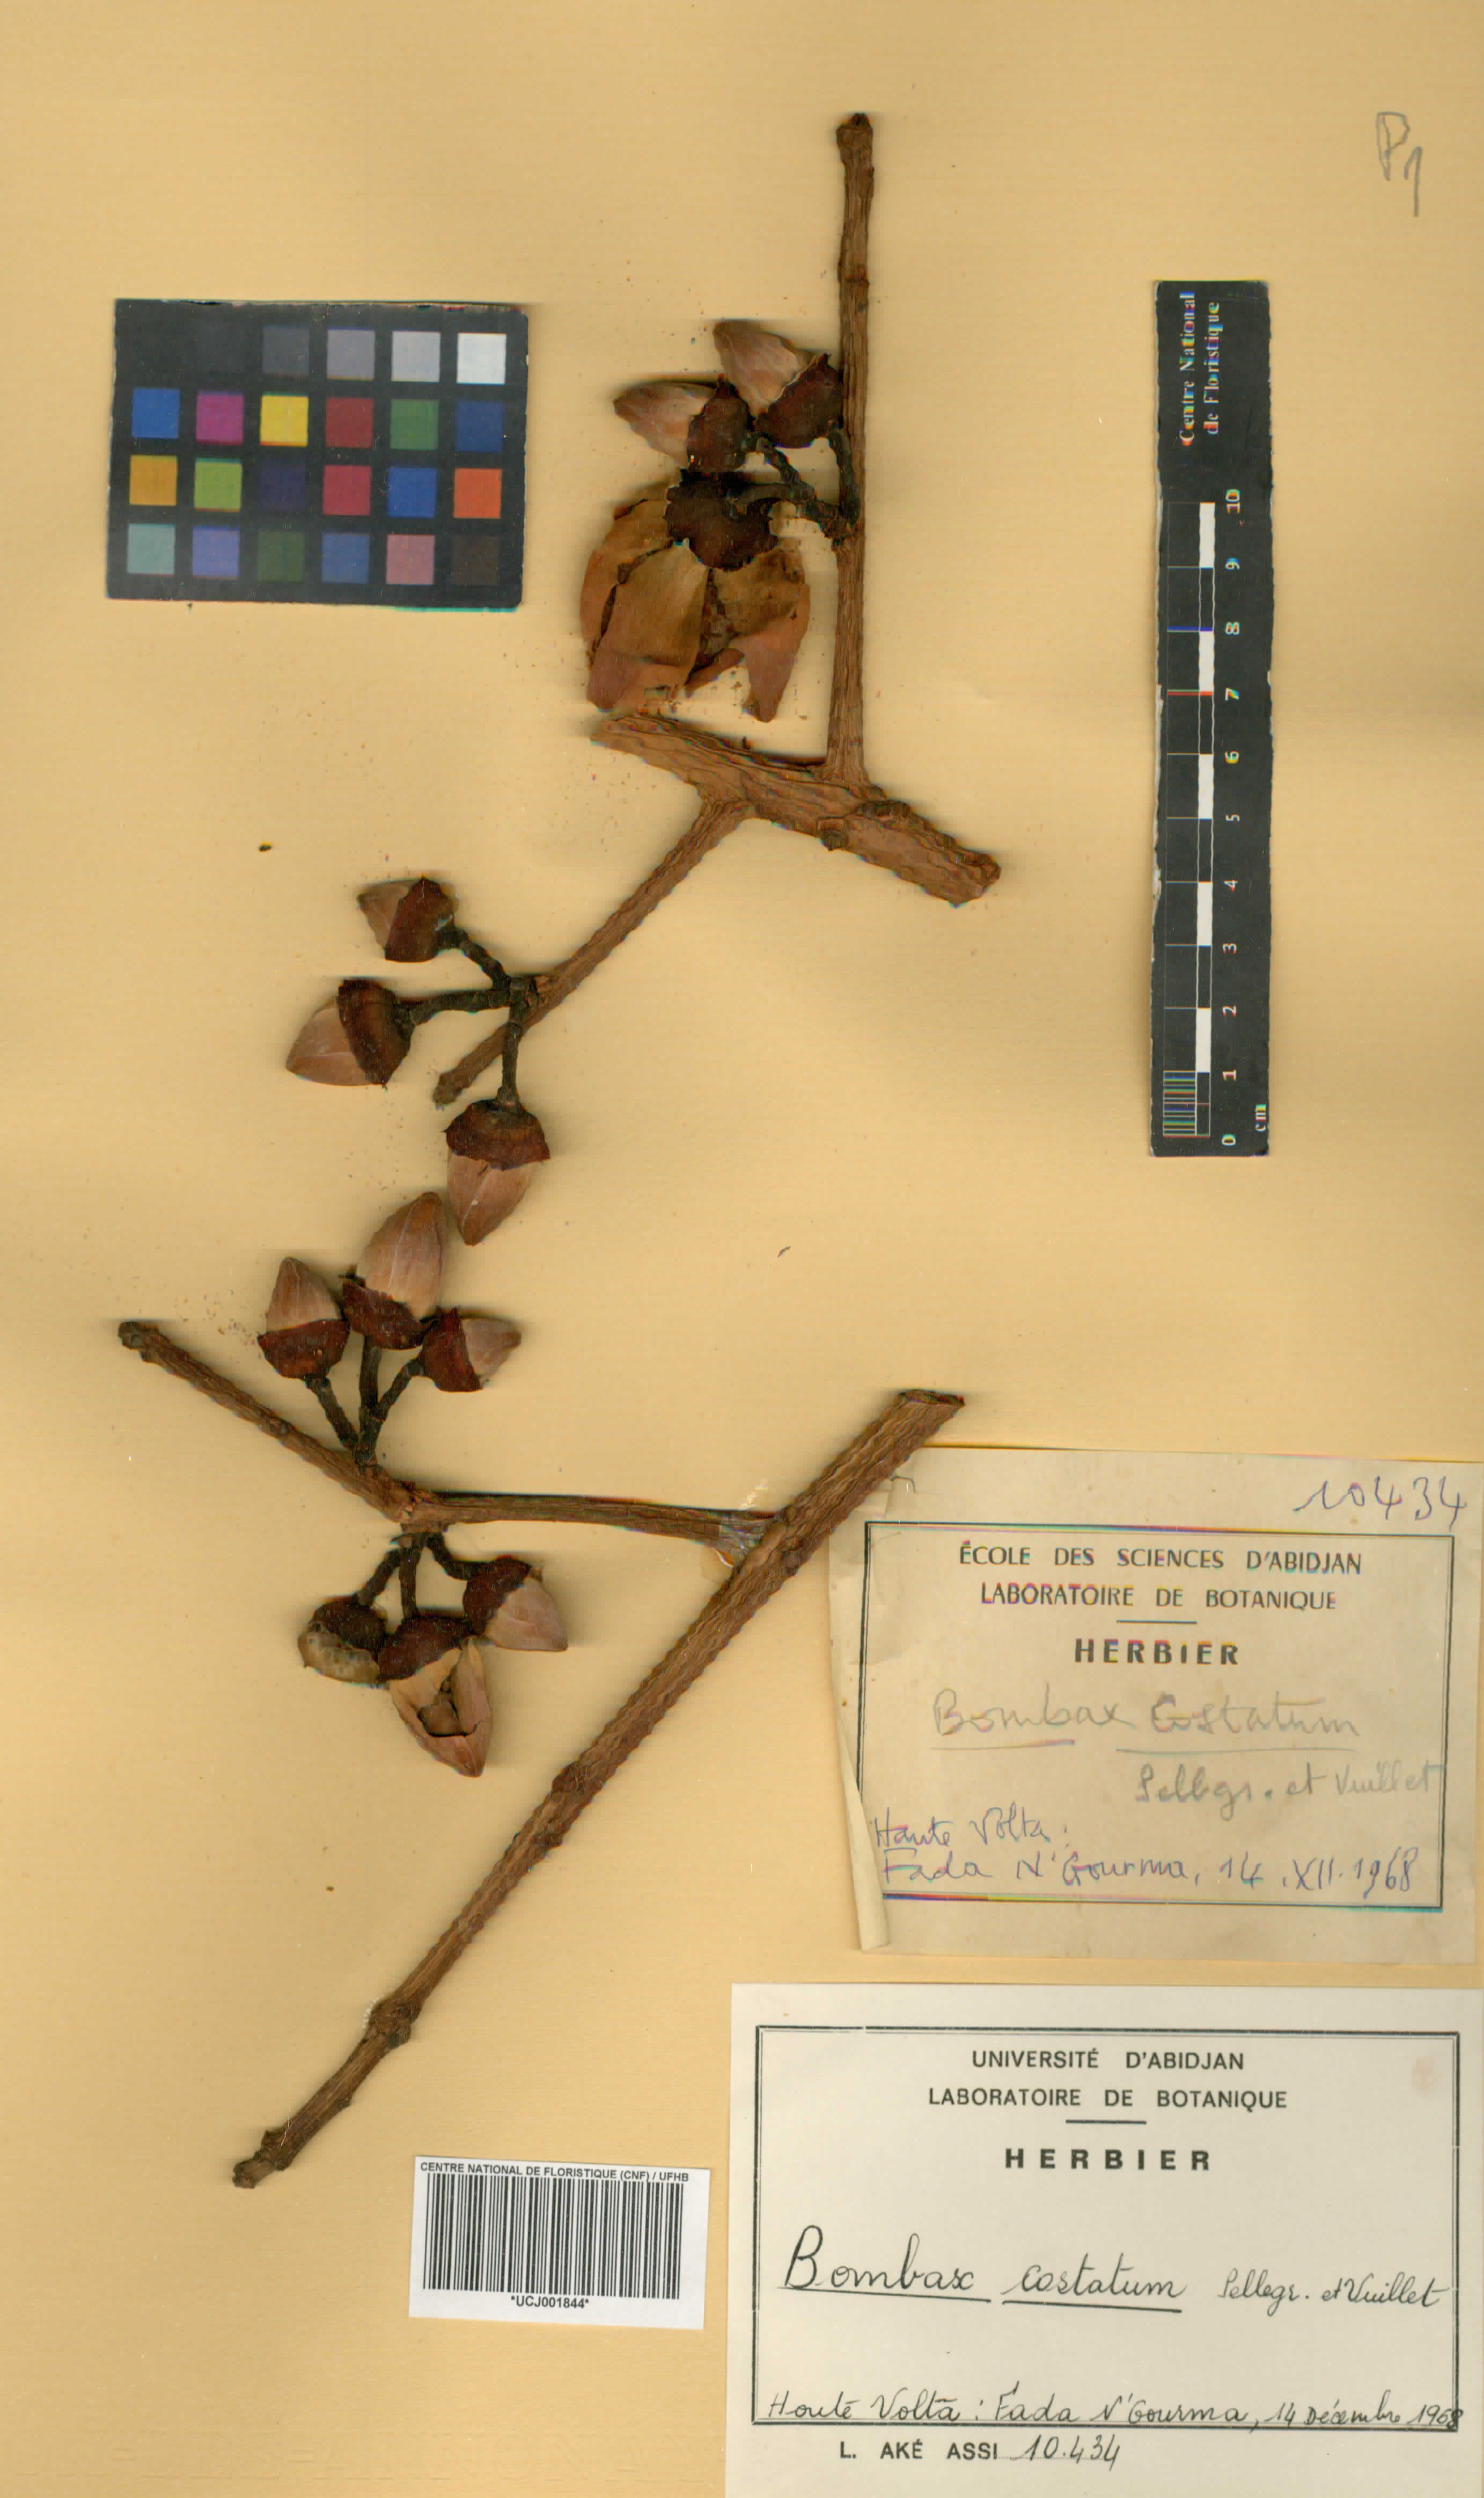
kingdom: Plantae
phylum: Tracheophyta
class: Magnoliopsida
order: Malvales
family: Malvaceae
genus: Bombax
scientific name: Bombax costatum
